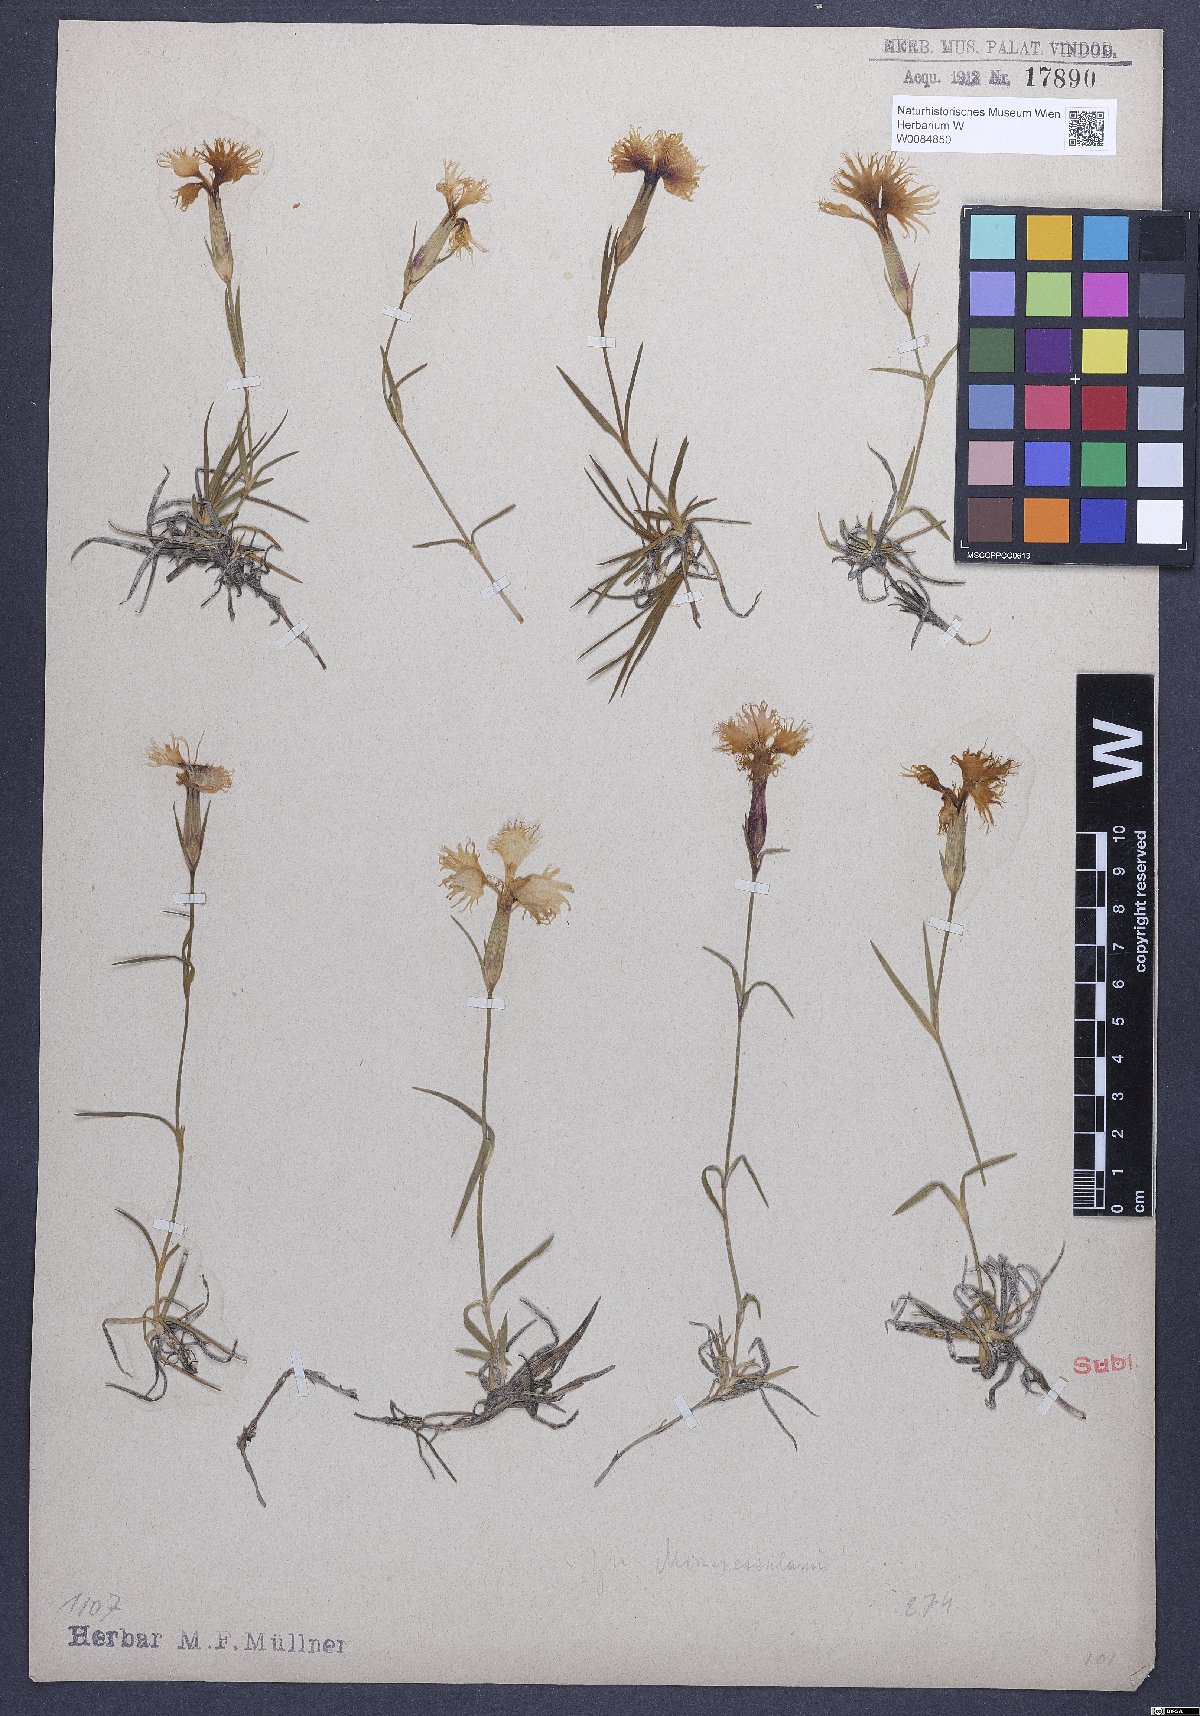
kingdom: Plantae
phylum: Tracheophyta
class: Magnoliopsida
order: Caryophyllales
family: Caryophyllaceae
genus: Dianthus
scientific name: Dianthus hyssopifolius
